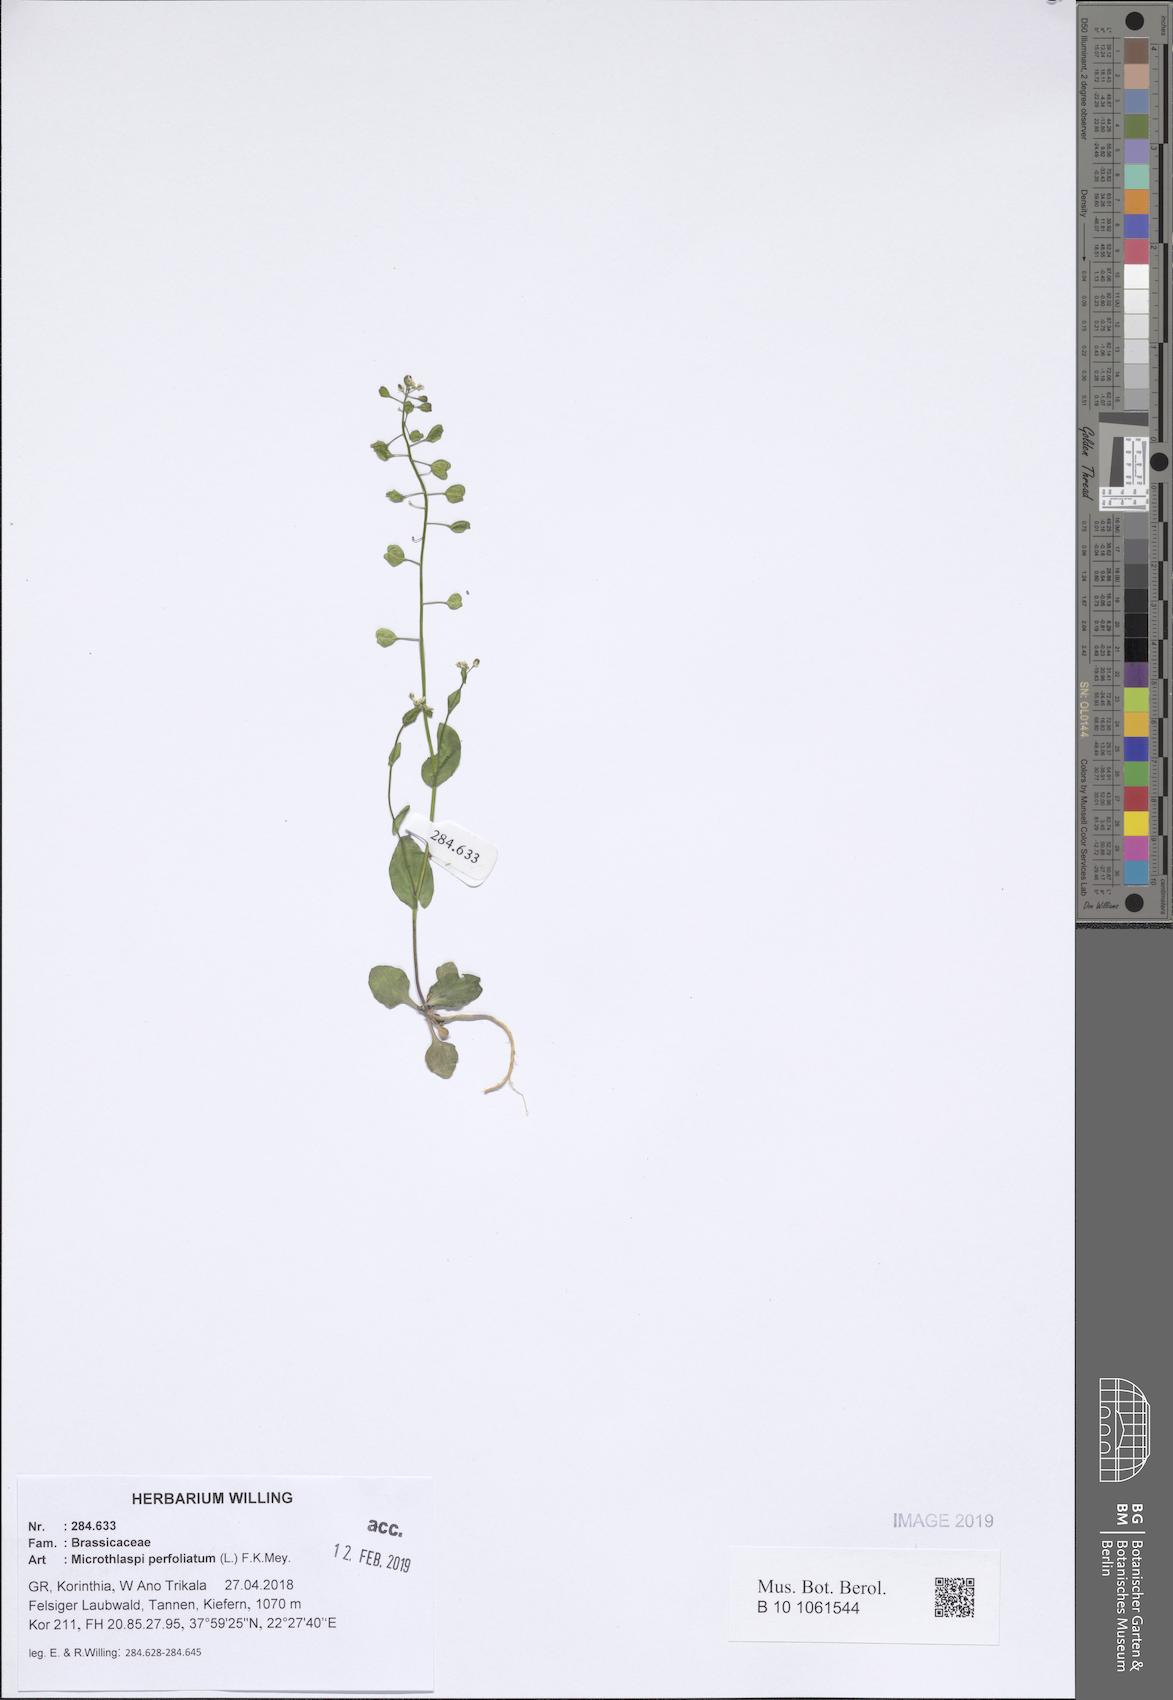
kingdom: Plantae
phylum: Tracheophyta
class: Magnoliopsida
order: Brassicales
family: Brassicaceae
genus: Noccaea
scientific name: Noccaea perfoliata
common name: Perfoliate pennycress
